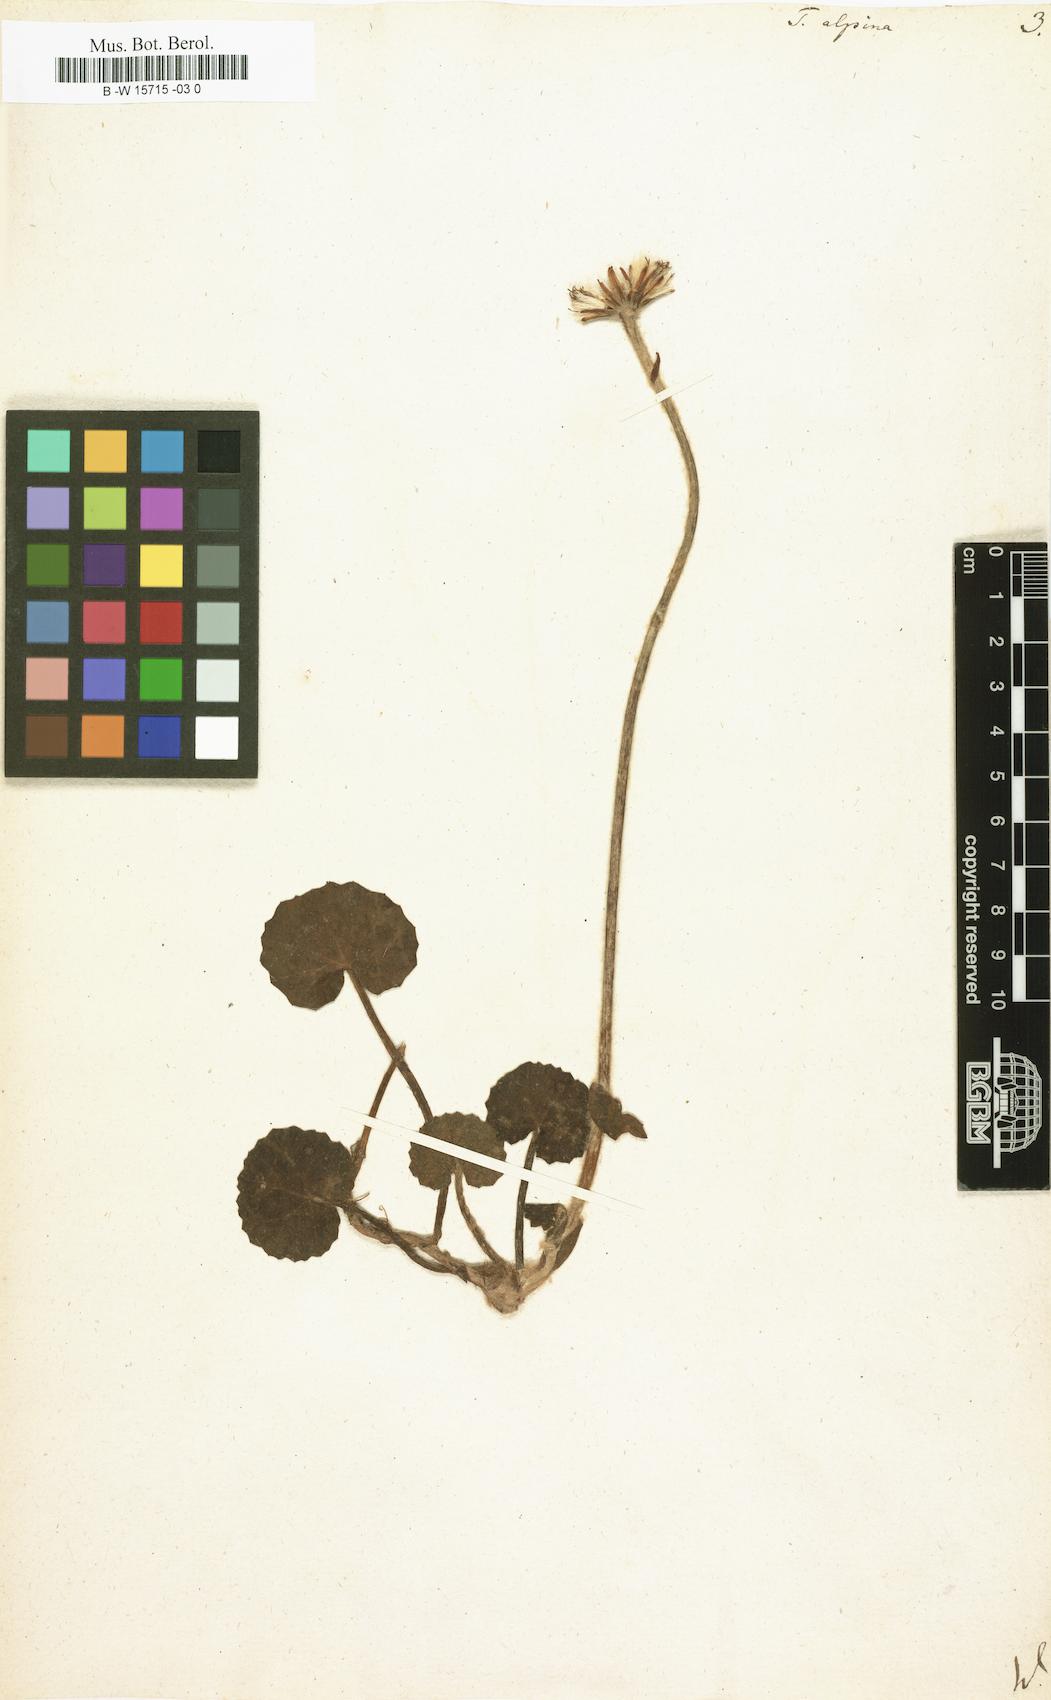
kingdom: Plantae
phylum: Tracheophyta
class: Magnoliopsida
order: Asterales
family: Asteraceae
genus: Tussilago
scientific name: Tussilago alpina
